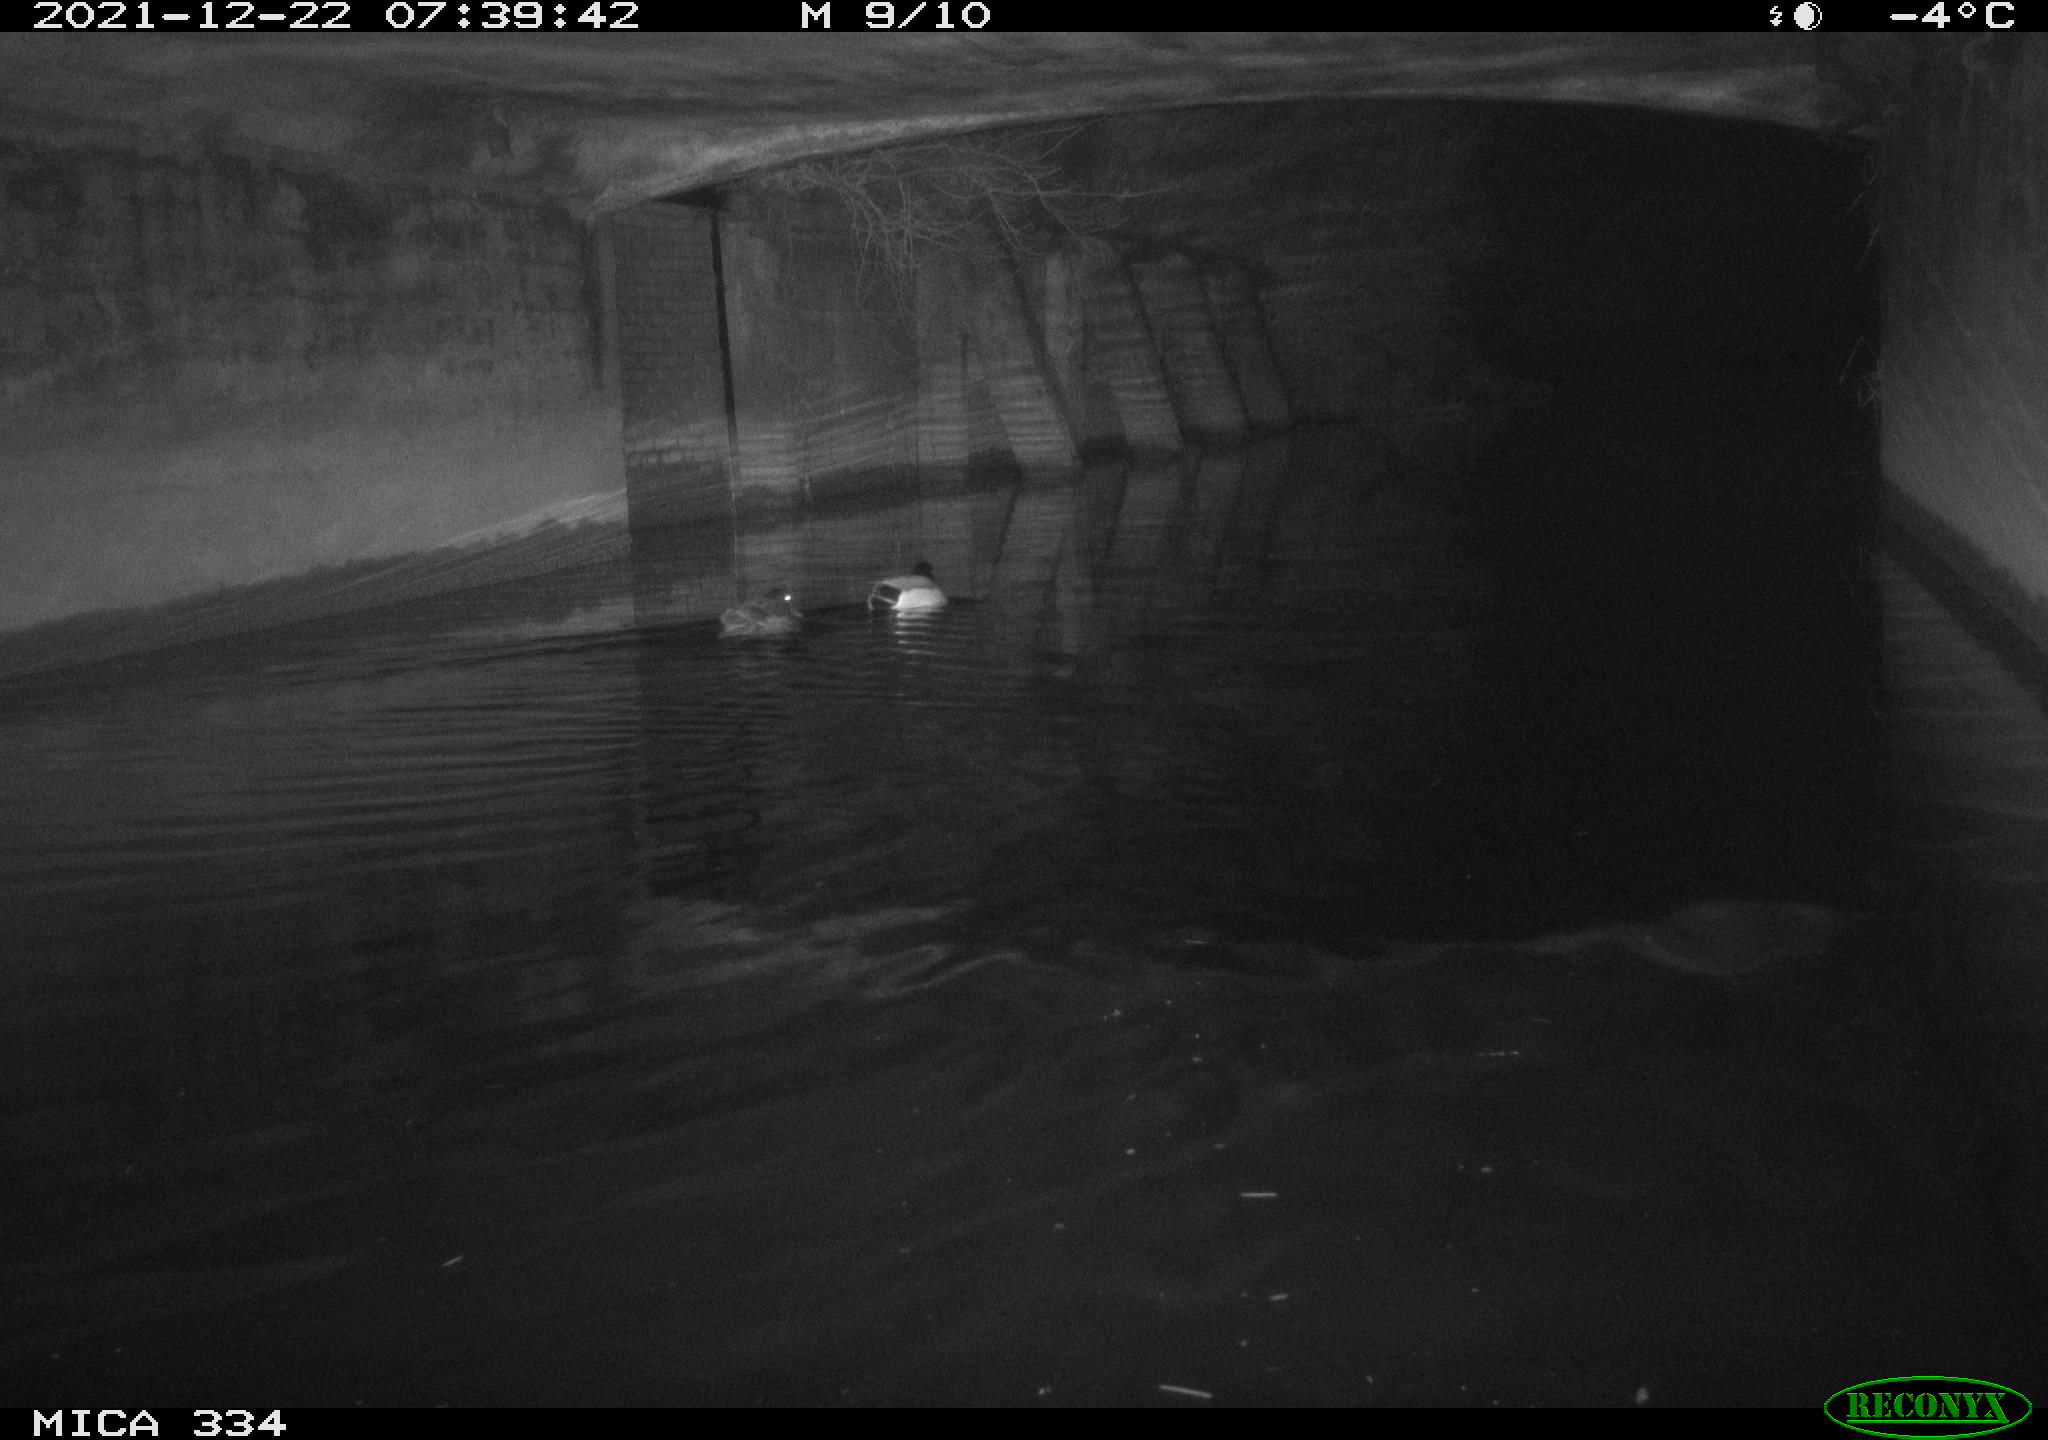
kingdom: Animalia
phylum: Chordata
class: Aves
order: Anseriformes
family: Anatidae
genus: Anas
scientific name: Anas platyrhynchos
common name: Mallard
